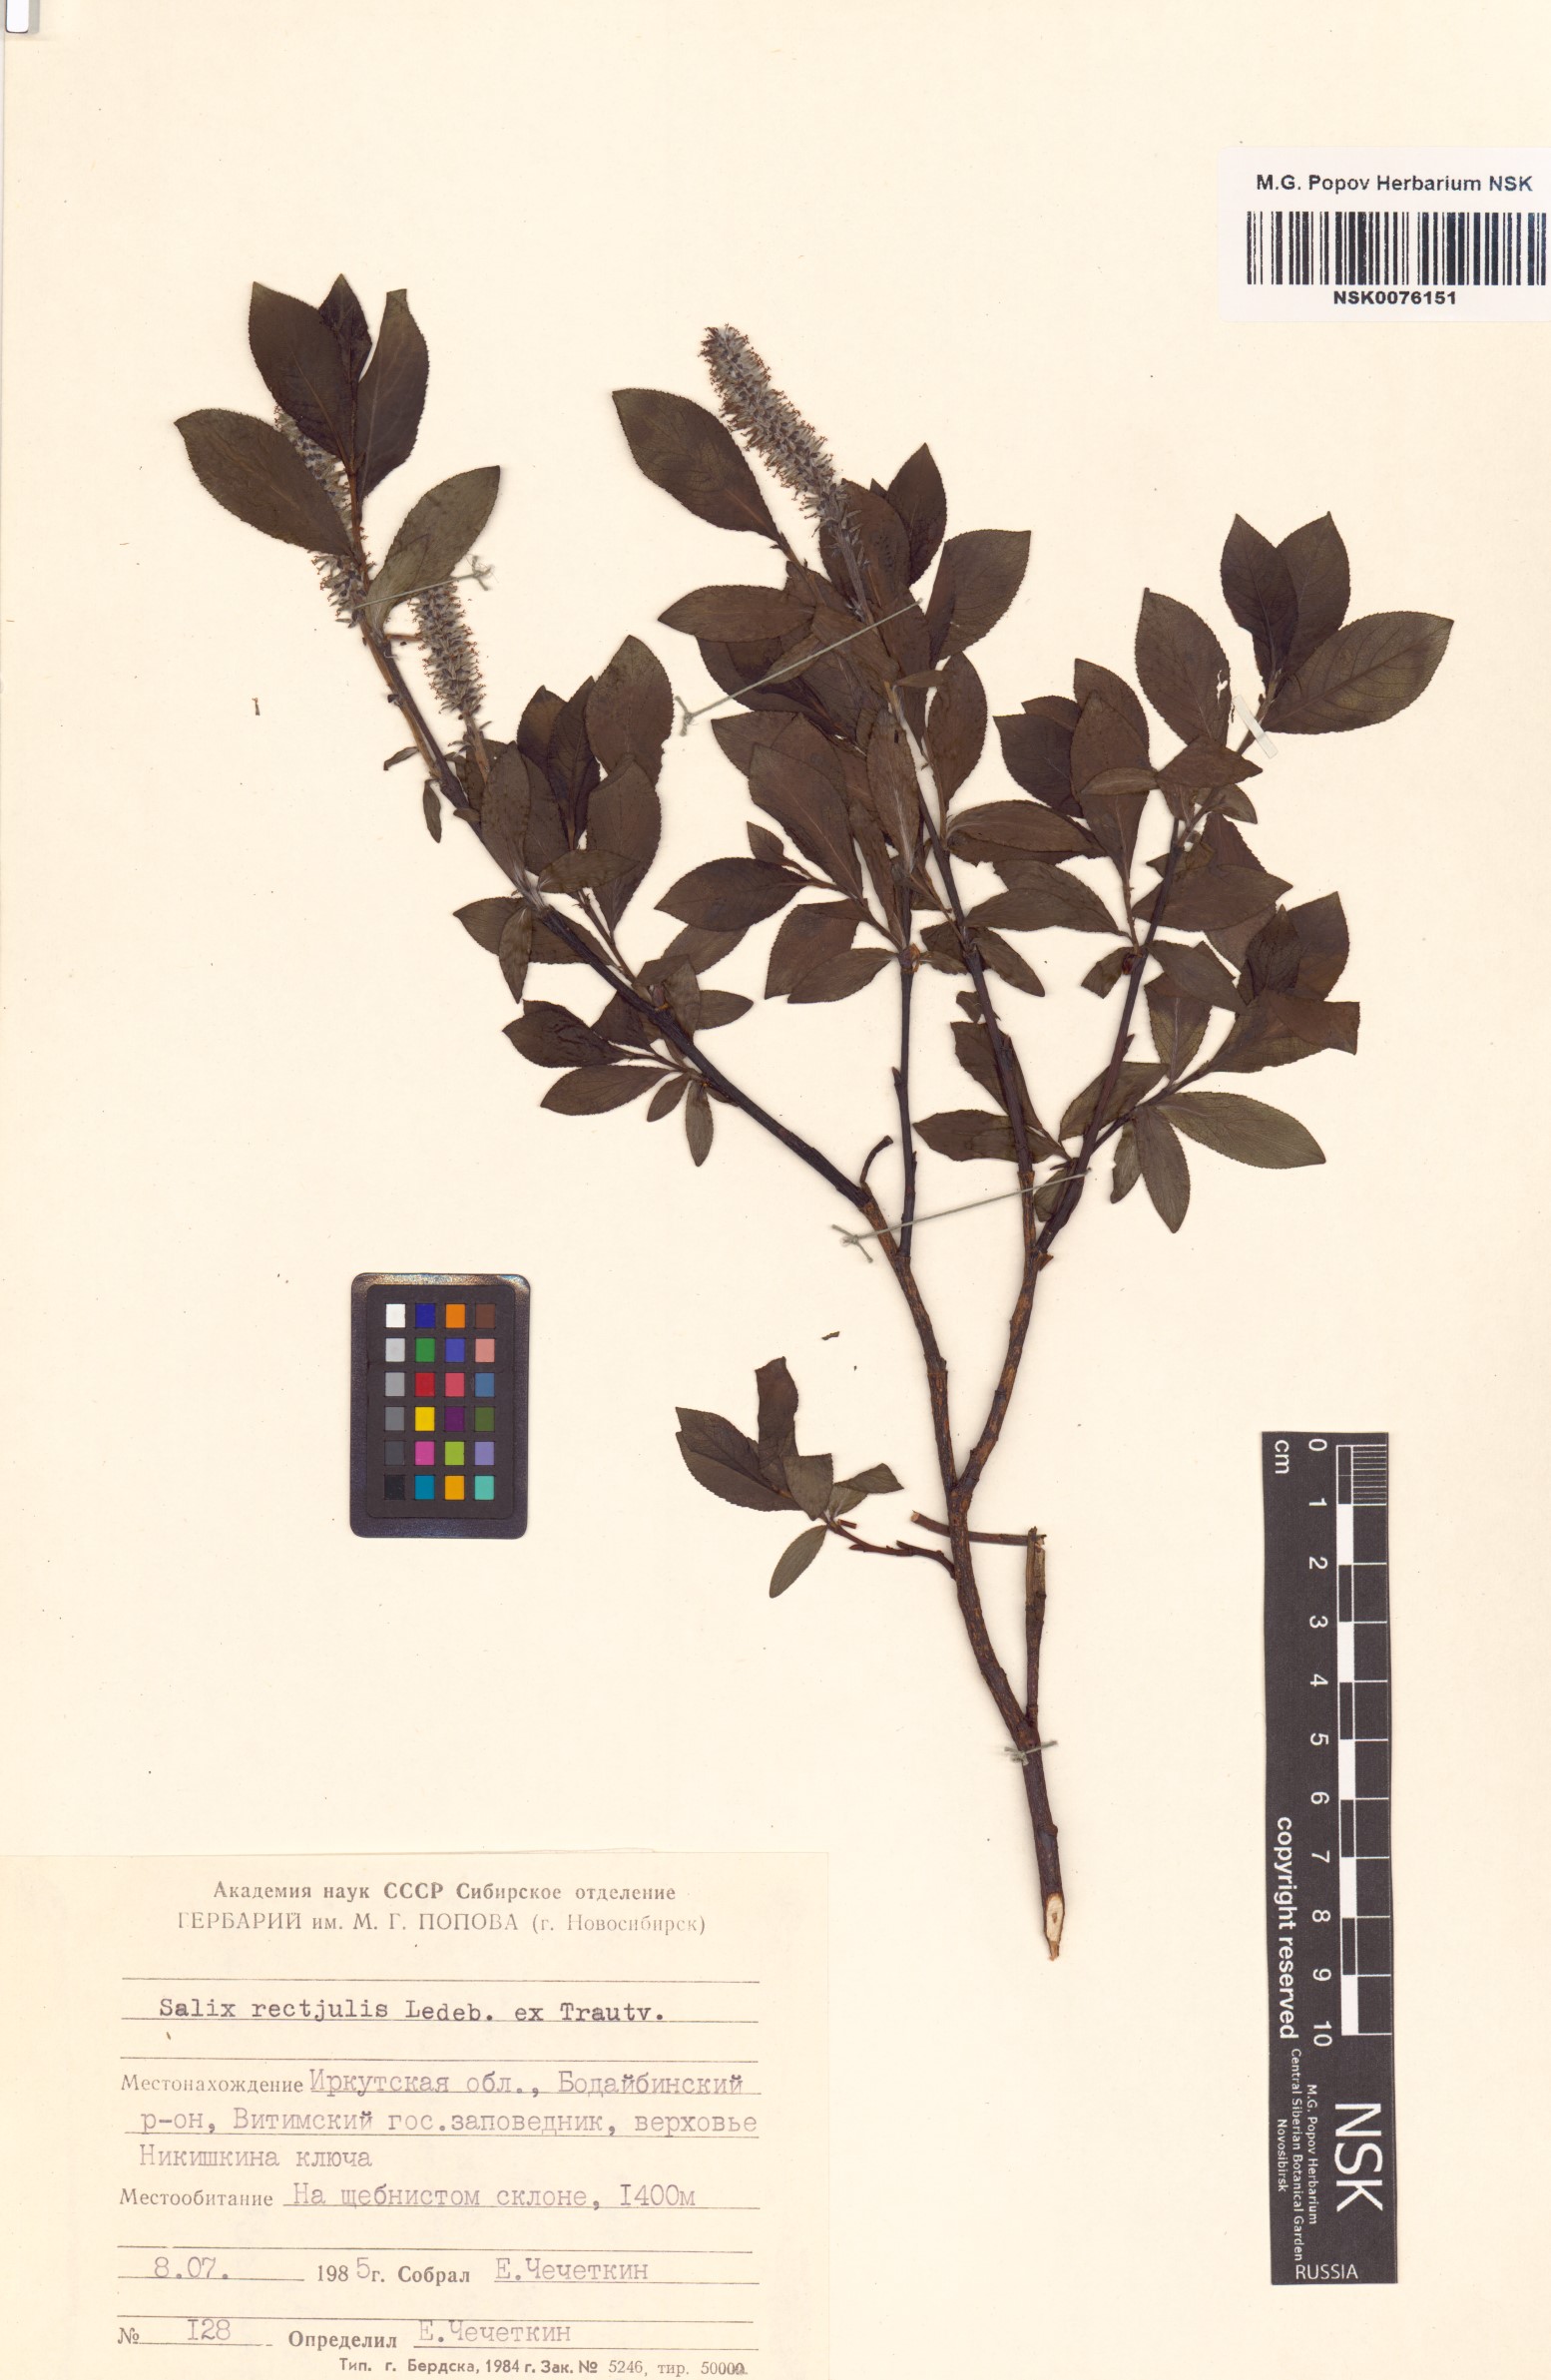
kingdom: Plantae
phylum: Tracheophyta
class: Magnoliopsida
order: Malpighiales
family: Salicaceae
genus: Salix
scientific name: Salix rectijulis
